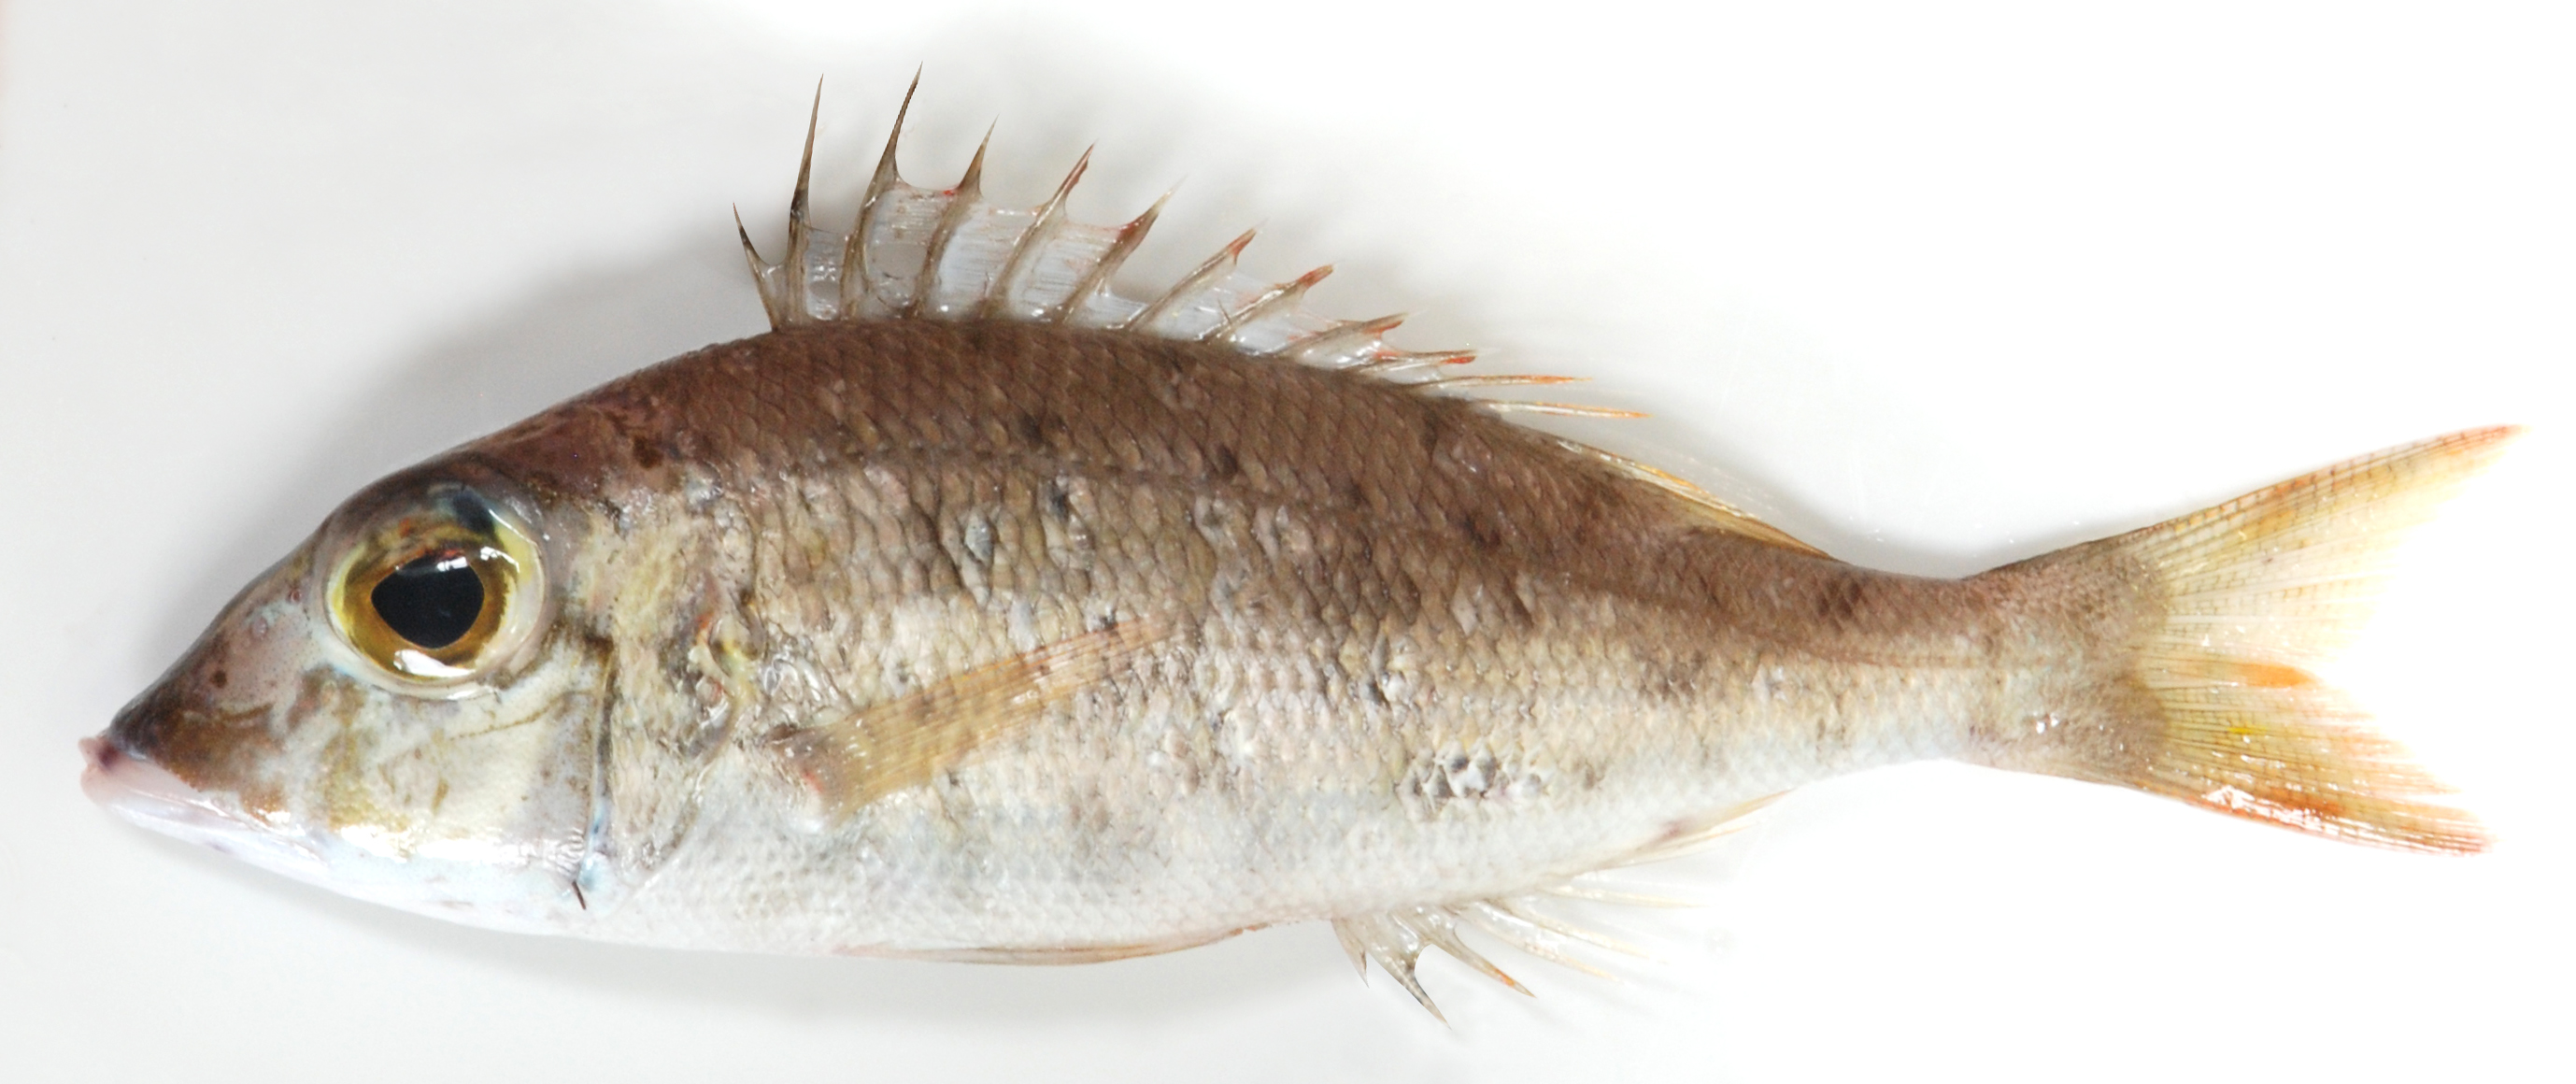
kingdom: Animalia
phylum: Chordata
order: Perciformes
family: Lethrinidae
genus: Lethrinus
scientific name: Lethrinus
